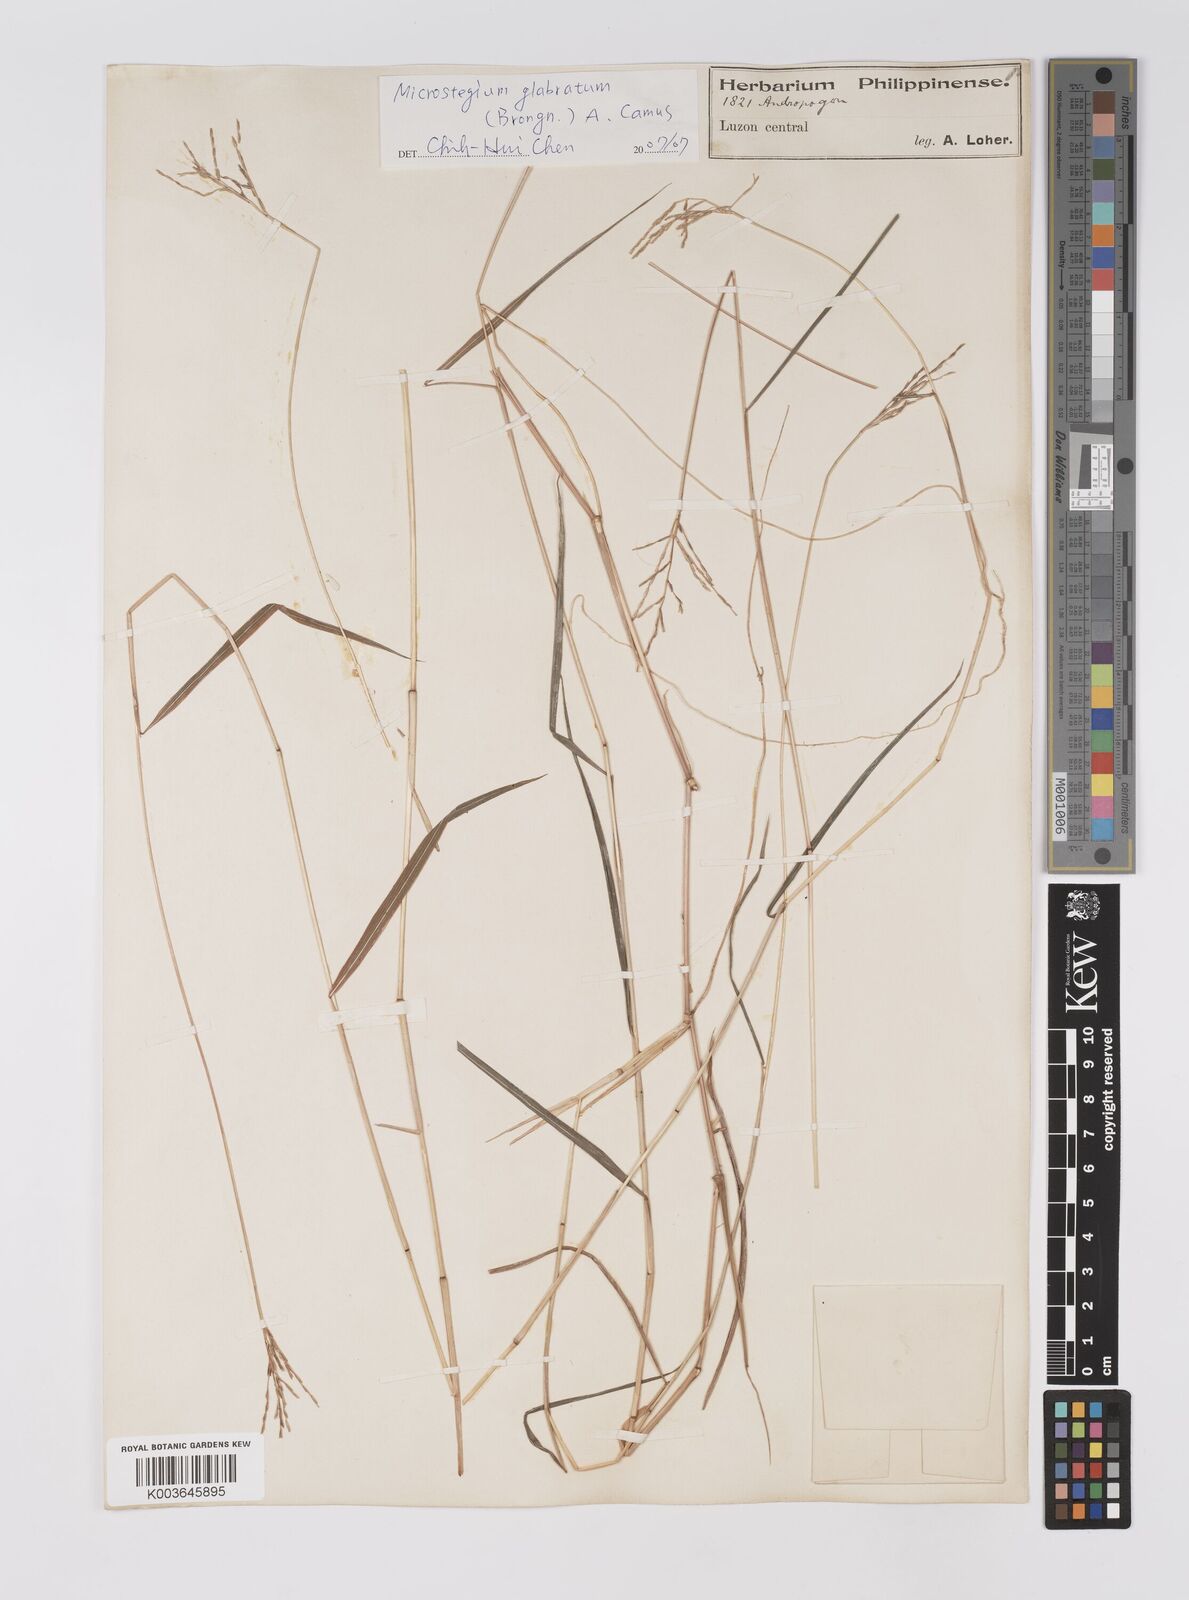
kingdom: Plantae
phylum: Tracheophyta
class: Liliopsida
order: Poales
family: Poaceae
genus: Microstegium
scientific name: Microstegium glabratum
